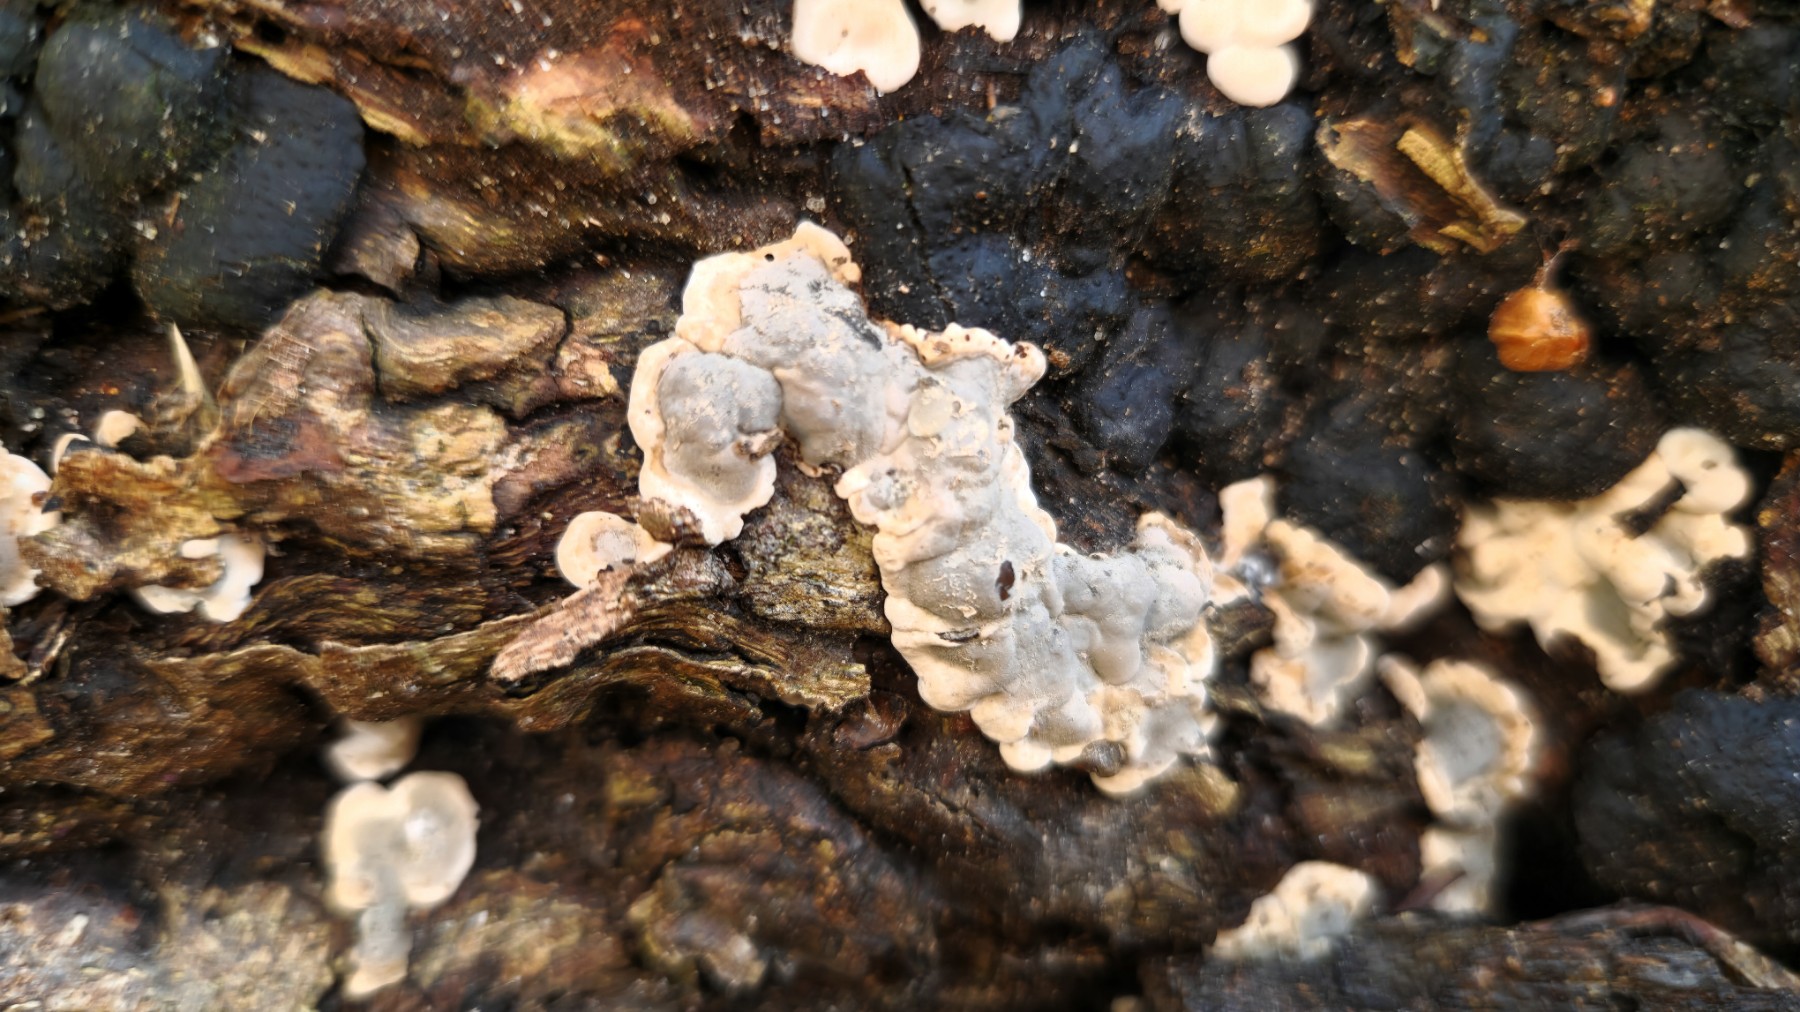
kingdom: Fungi
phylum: Ascomycota
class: Sordariomycetes
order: Xylariales
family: Xylariaceae
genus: Kretzschmaria
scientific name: Kretzschmaria deusta
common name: stor kulsvamp
